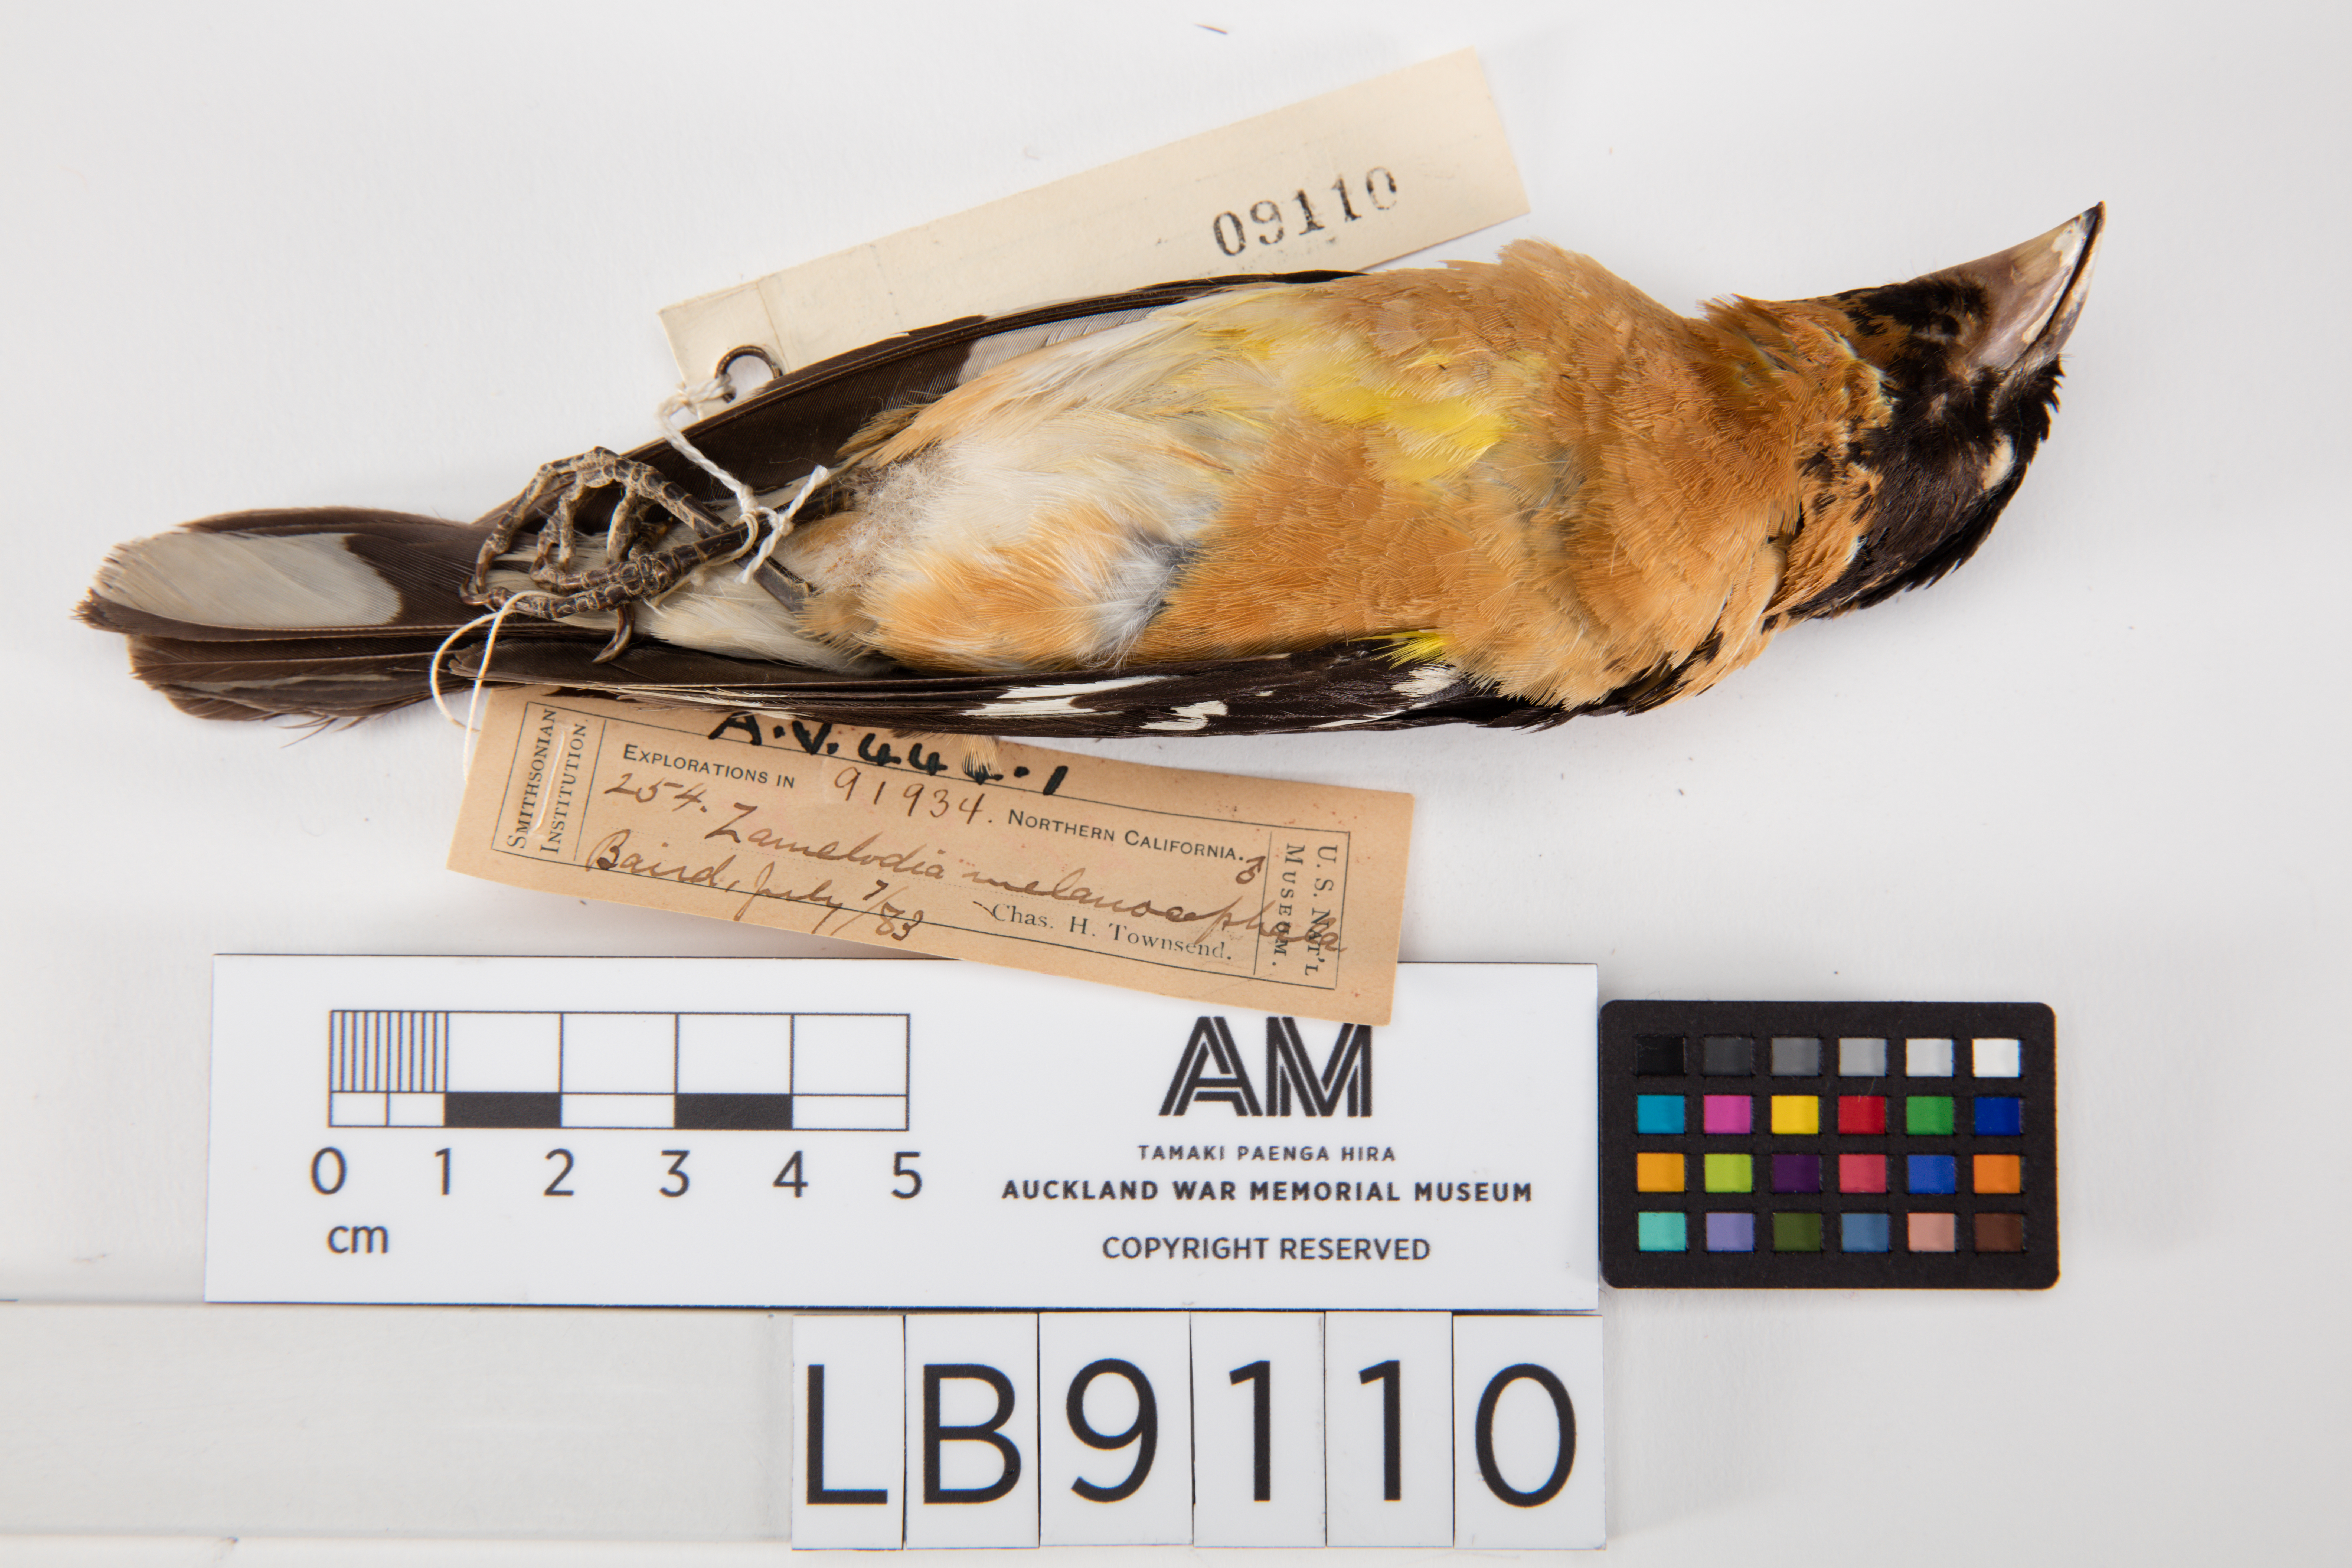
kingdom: Animalia
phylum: Chordata
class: Aves
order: Passeriformes
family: Cardinalidae
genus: Pheucticus
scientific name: Pheucticus melanocephalus
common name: Black-headed grosbeak
